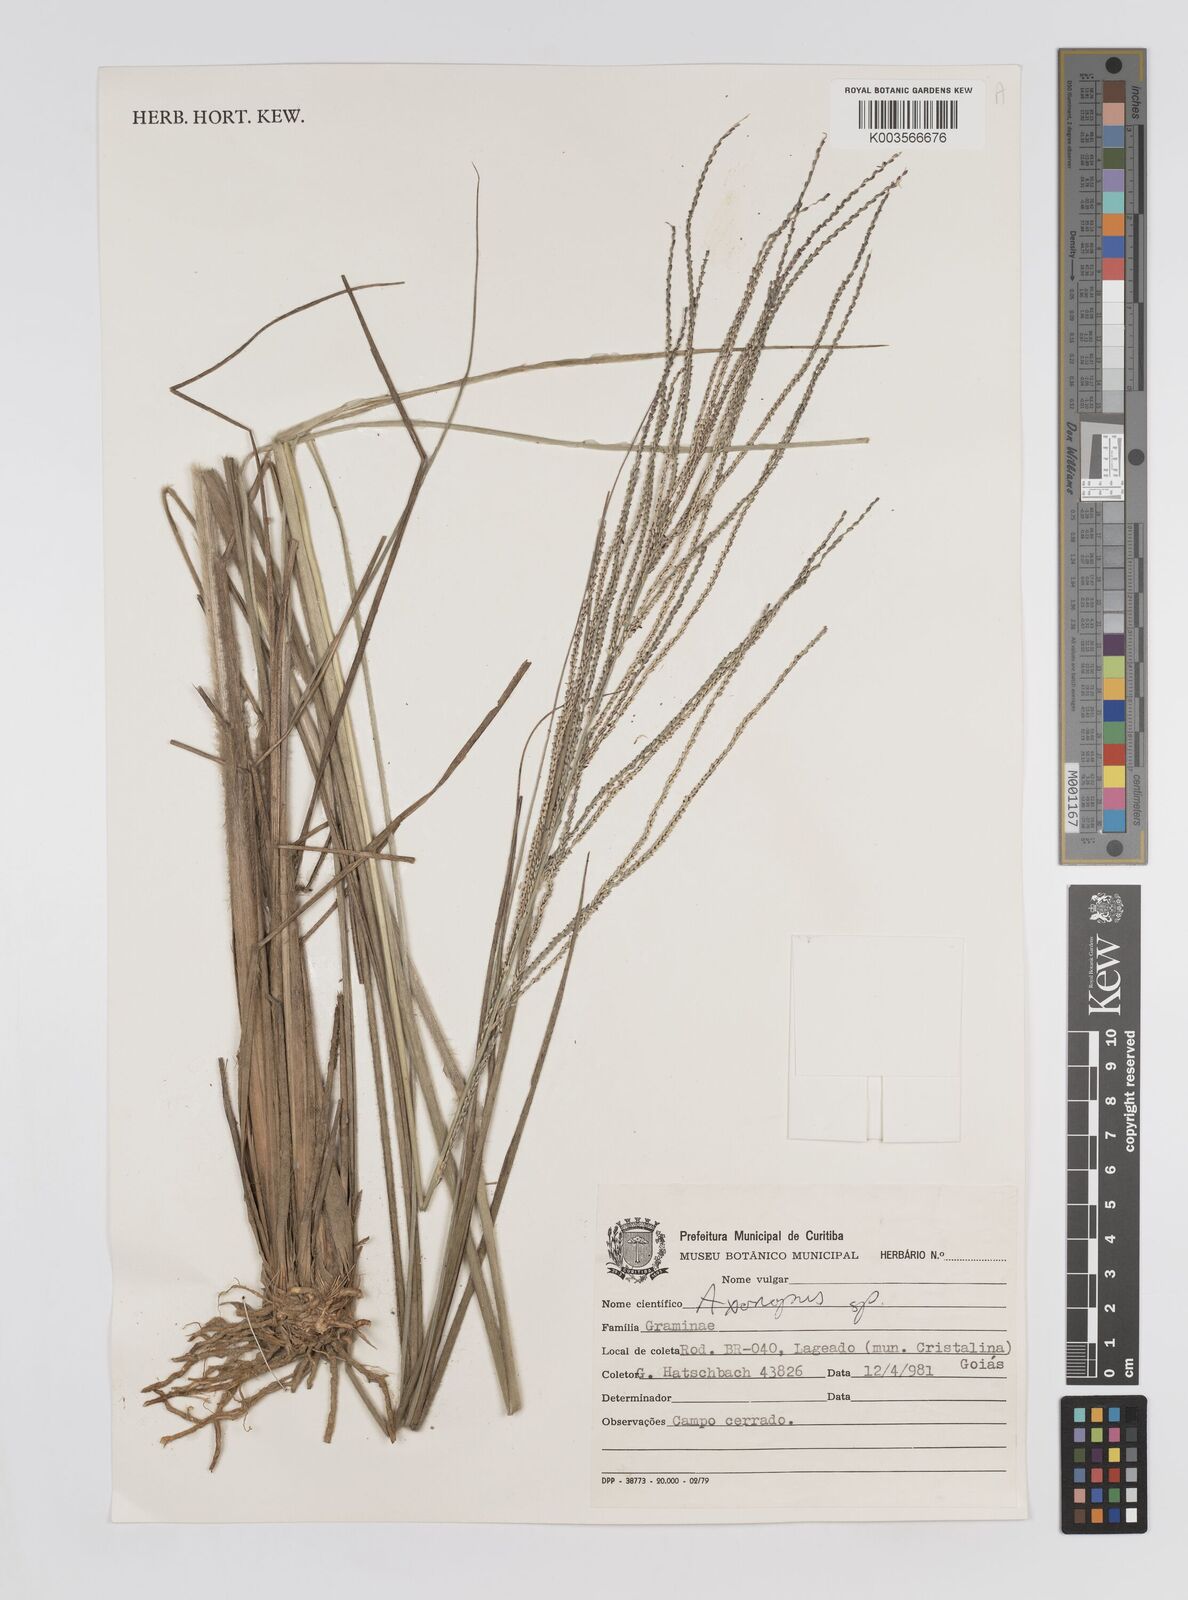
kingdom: Plantae
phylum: Tracheophyta
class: Liliopsida
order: Poales
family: Poaceae
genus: Axonopus
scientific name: Axonopus siccus
